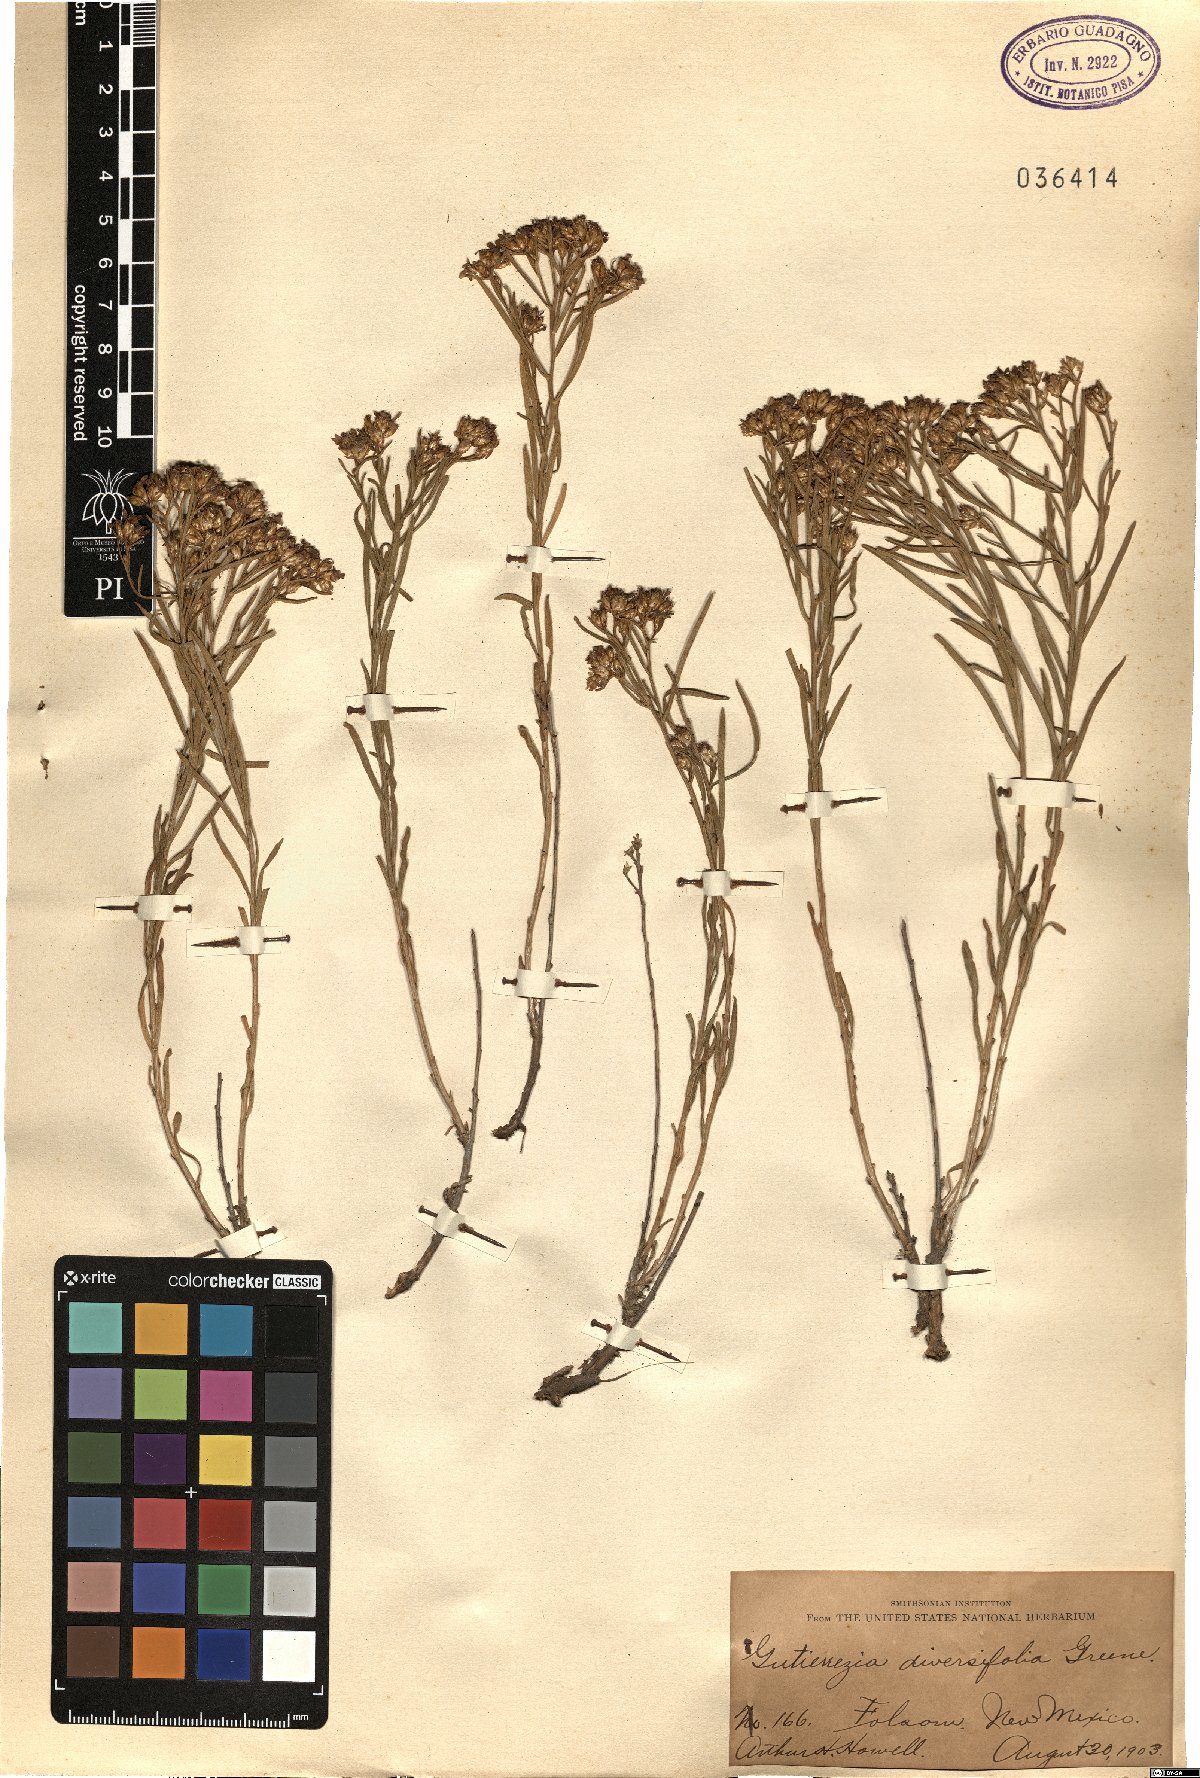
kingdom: Plantae
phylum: Tracheophyta
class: Magnoliopsida
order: Asterales
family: Asteraceae
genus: Gutierrezia
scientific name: Gutierrezia sarothrae
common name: Broom snakeweed
